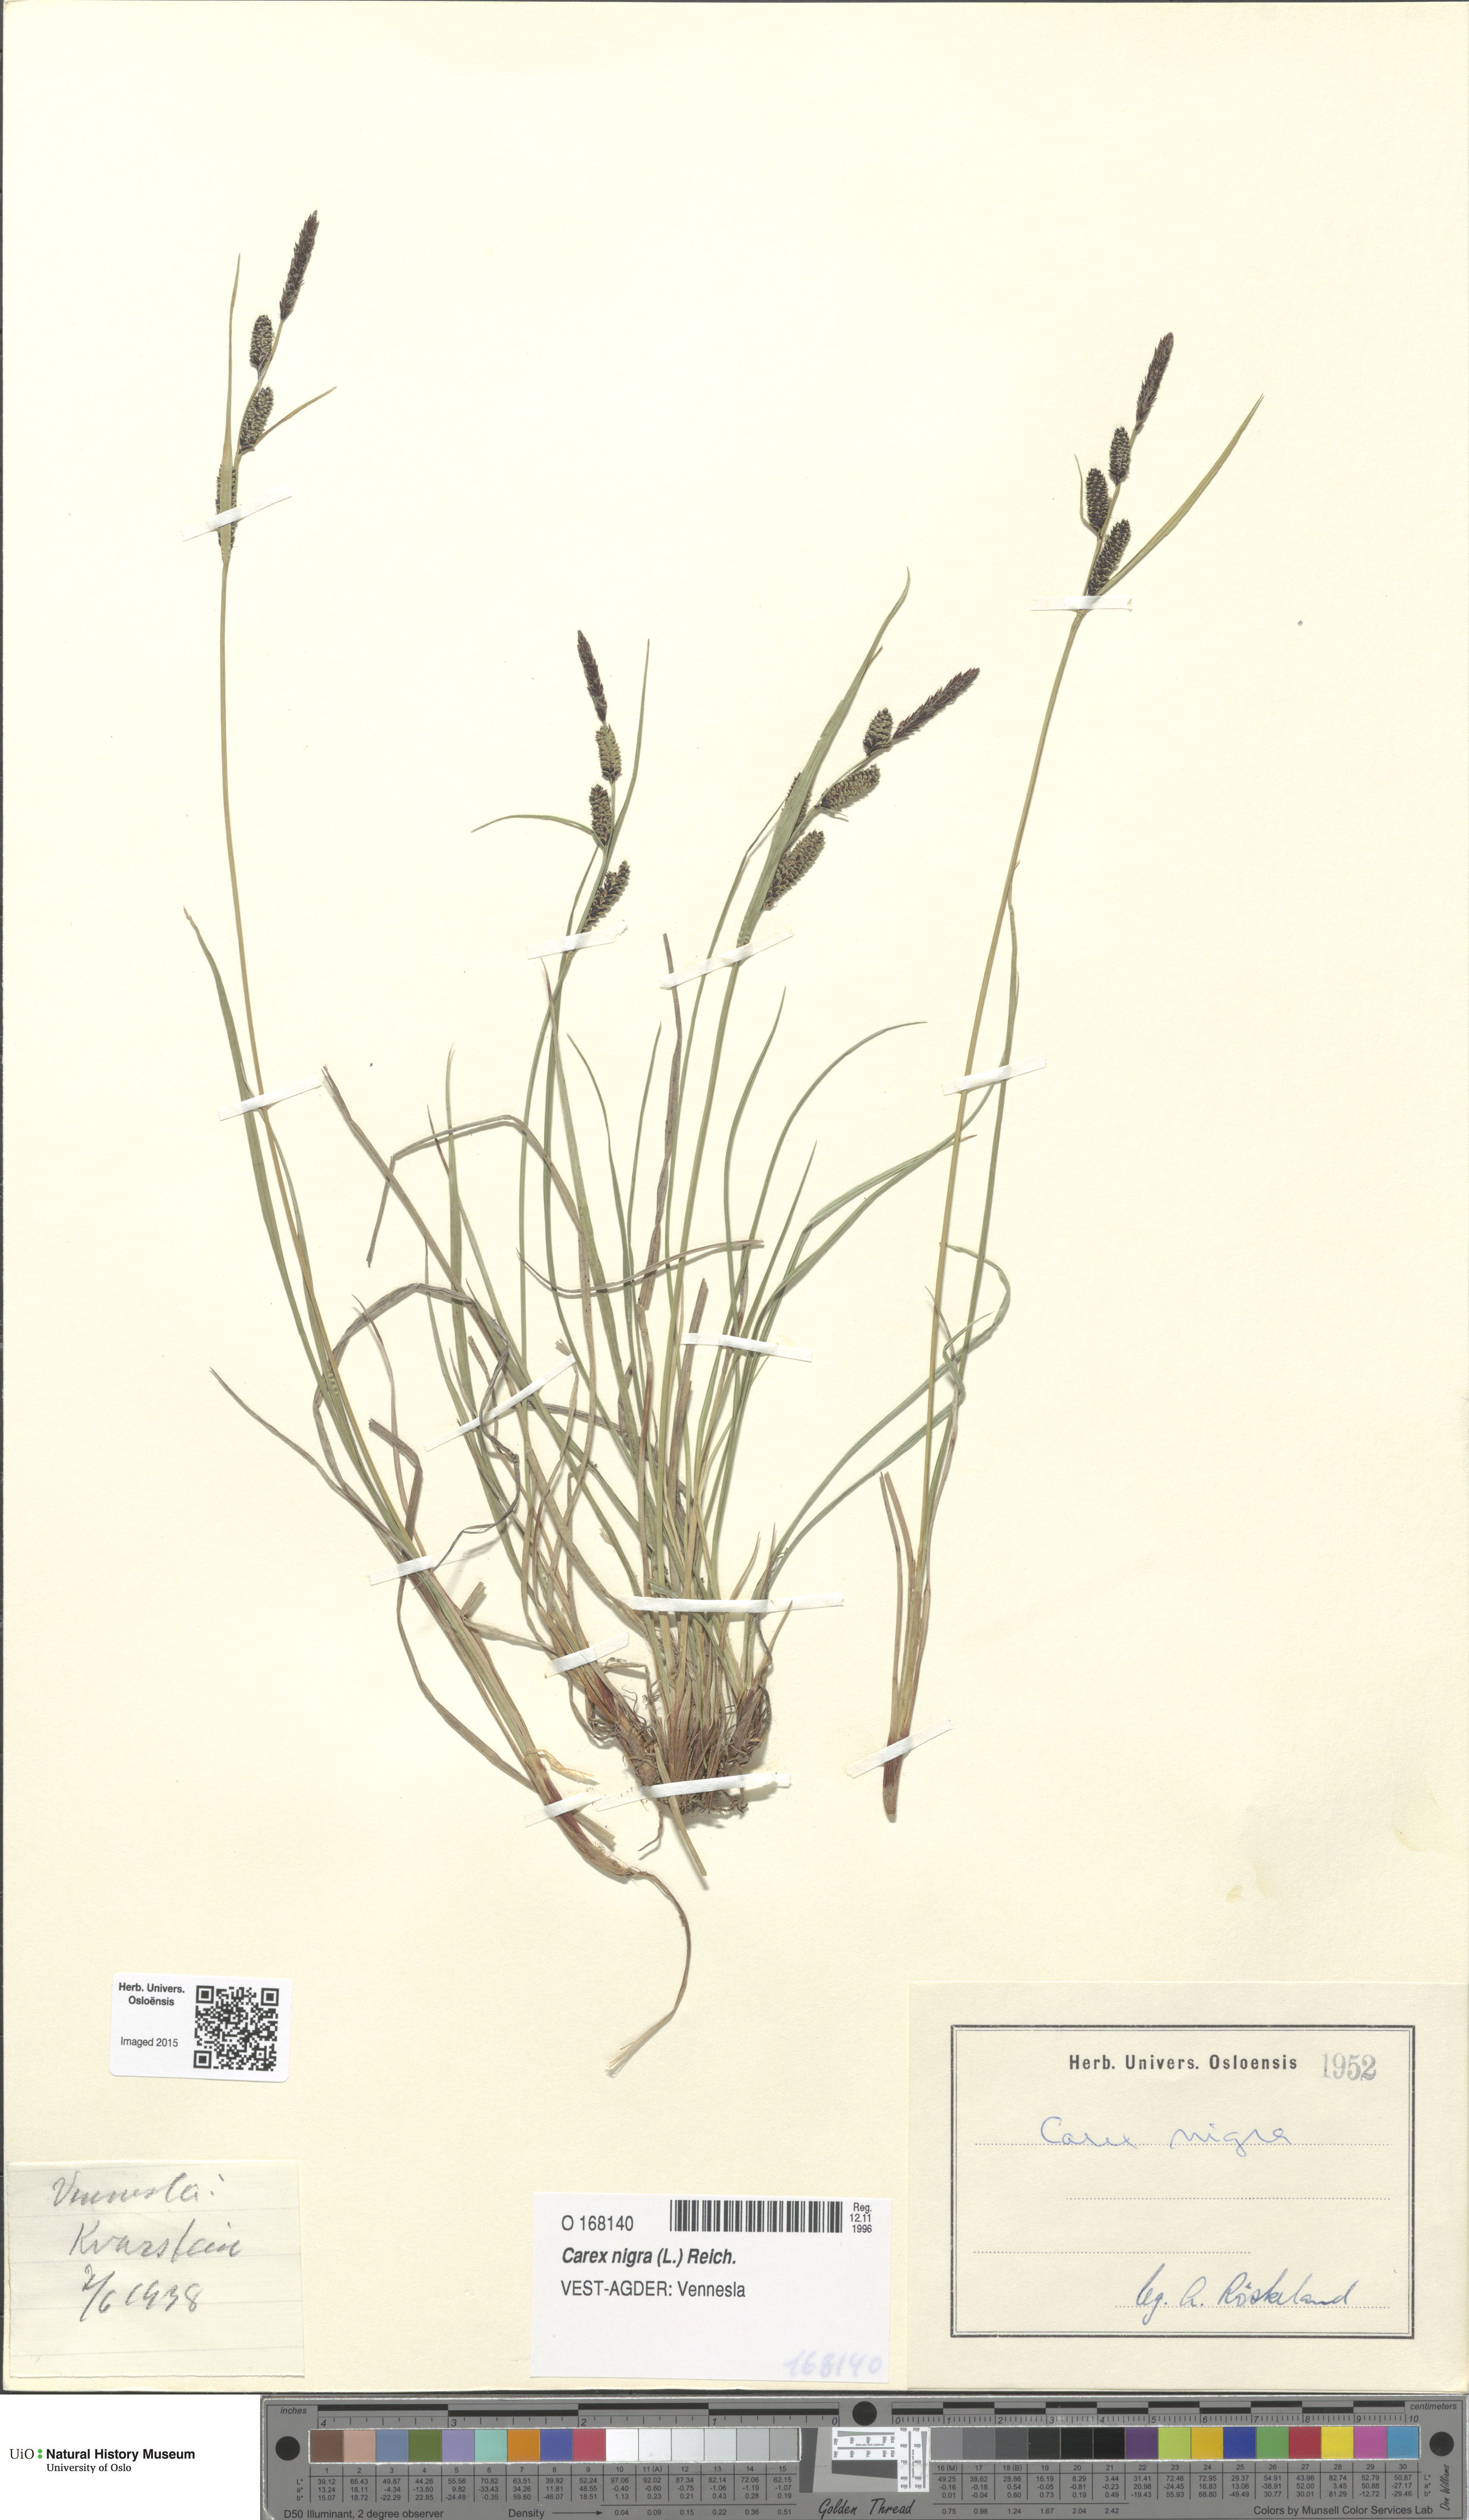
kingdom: Plantae
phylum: Tracheophyta
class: Liliopsida
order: Poales
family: Cyperaceae
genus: Carex
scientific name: Carex nigra
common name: Common sedge
